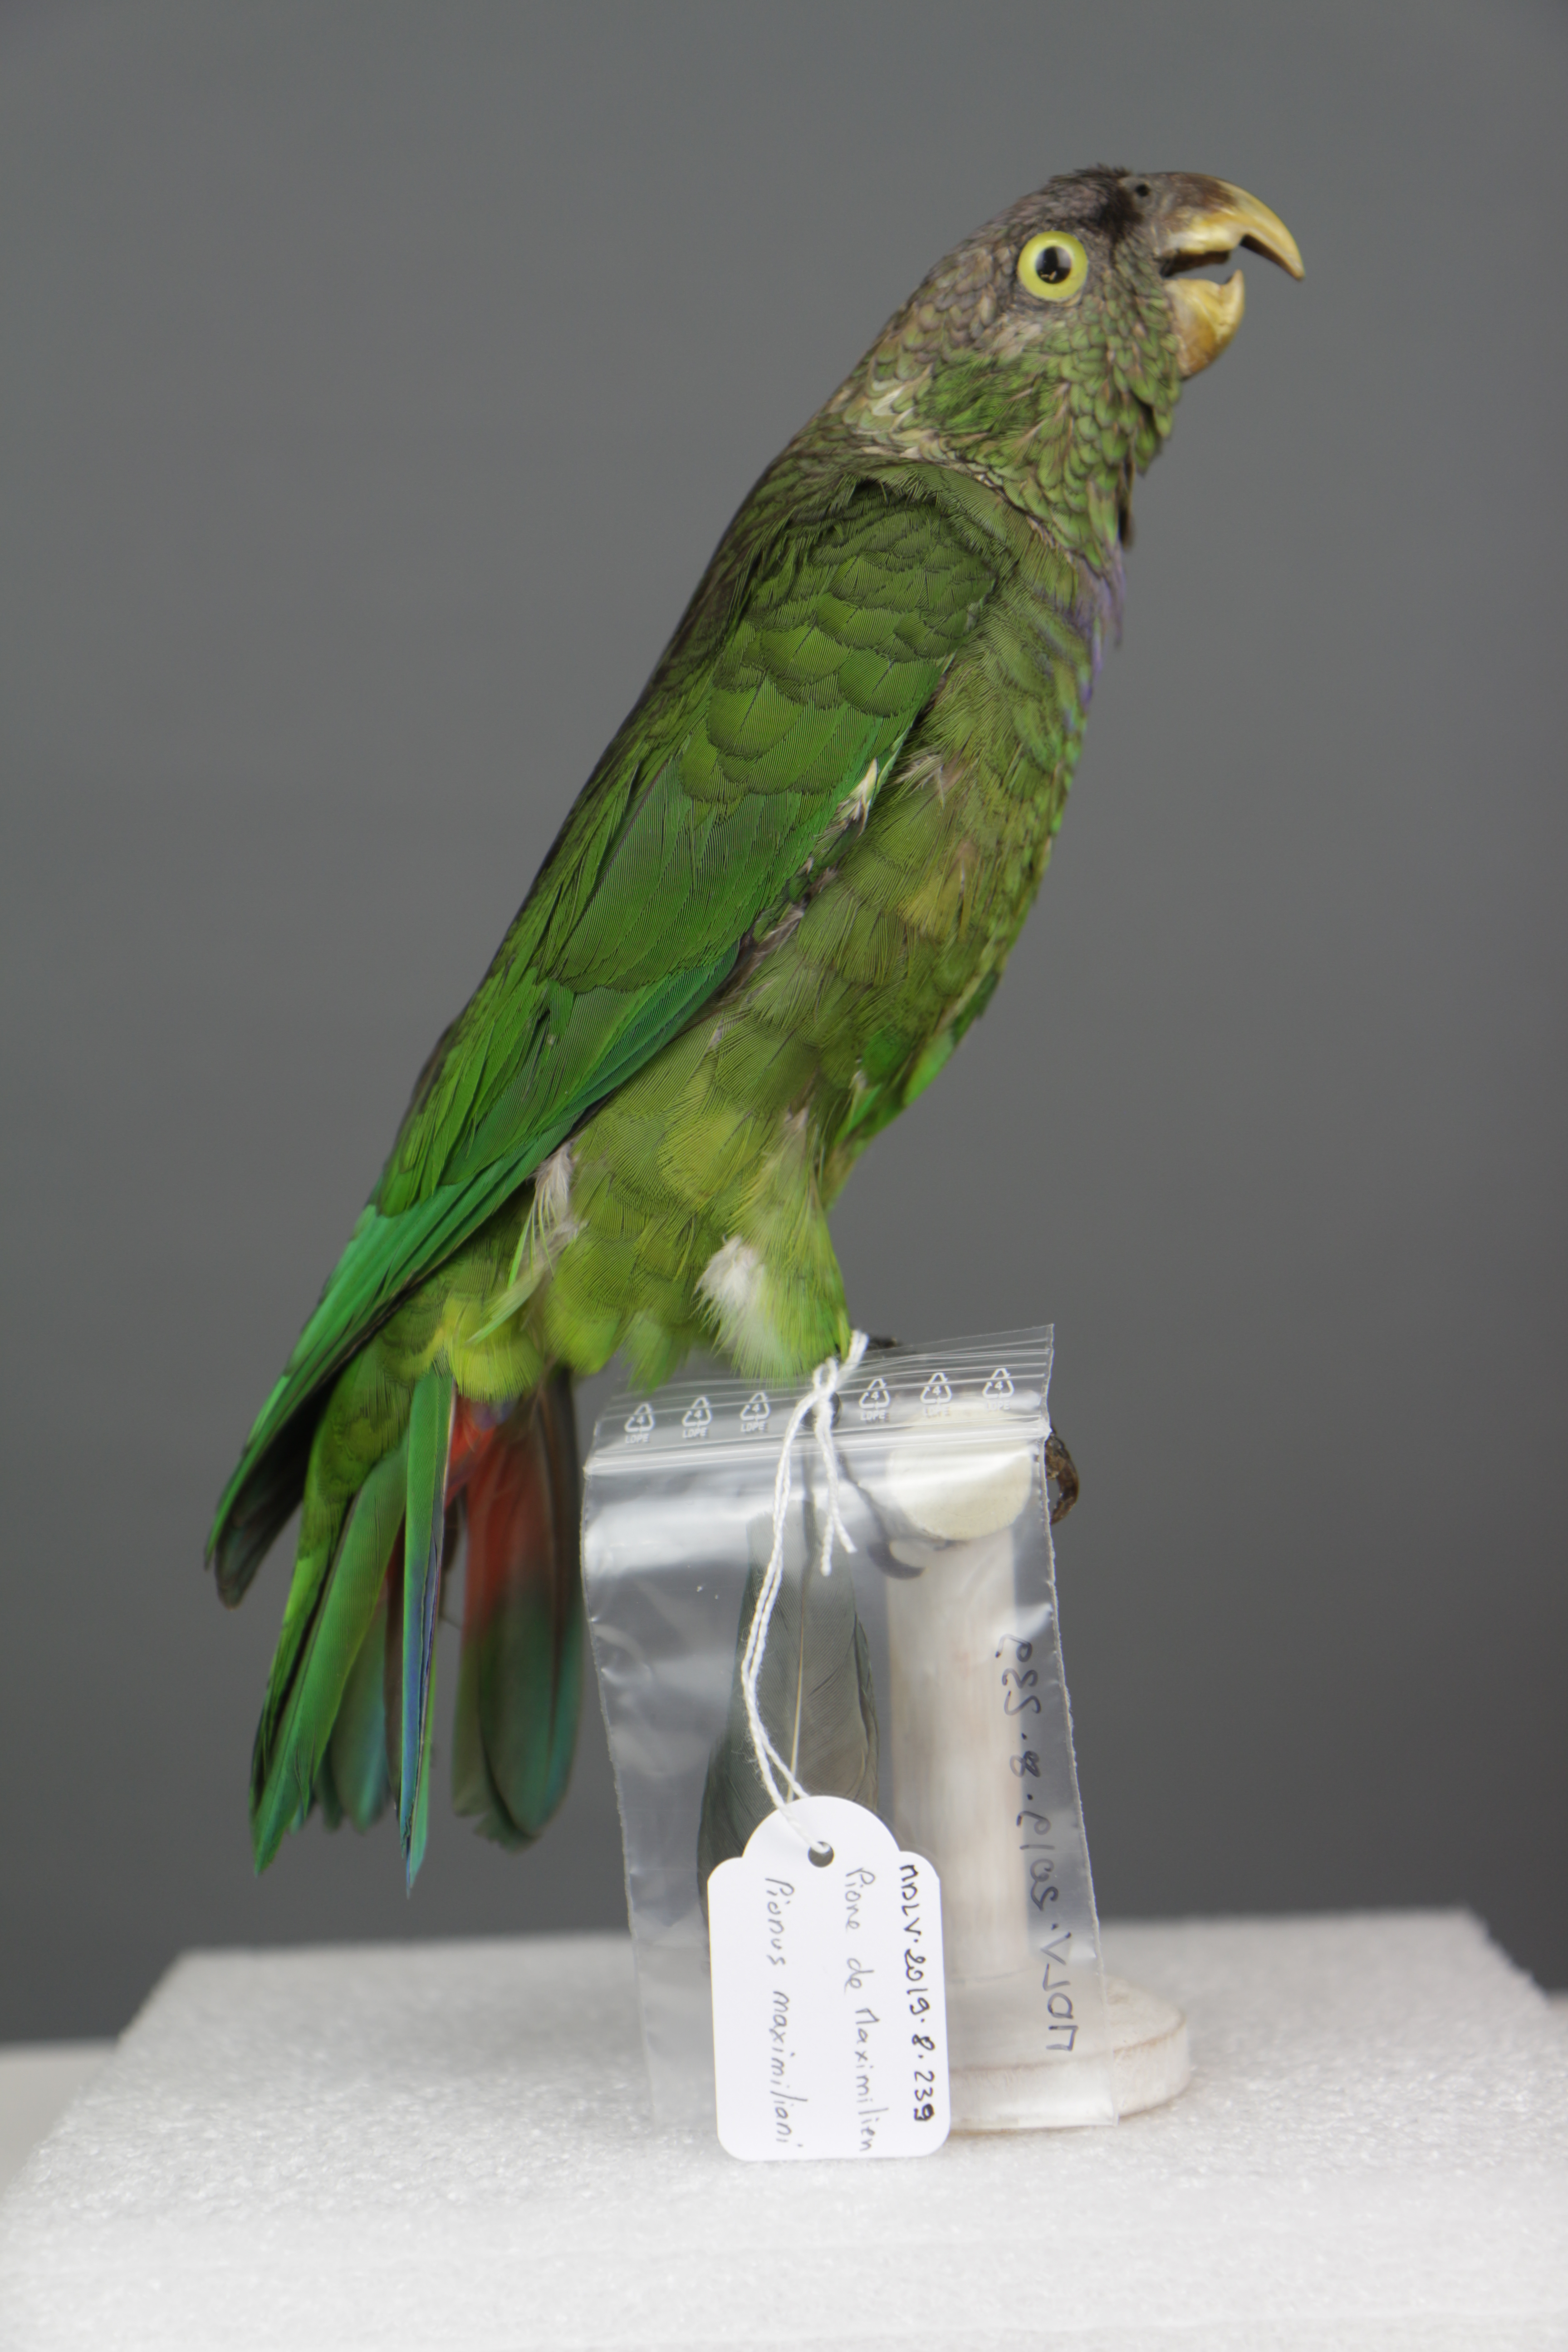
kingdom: Animalia
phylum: Chordata
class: Aves
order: Psittaciformes
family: Psittacidae
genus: Pionus
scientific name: Pionus maximiliani
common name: Scaly-headed parrot
